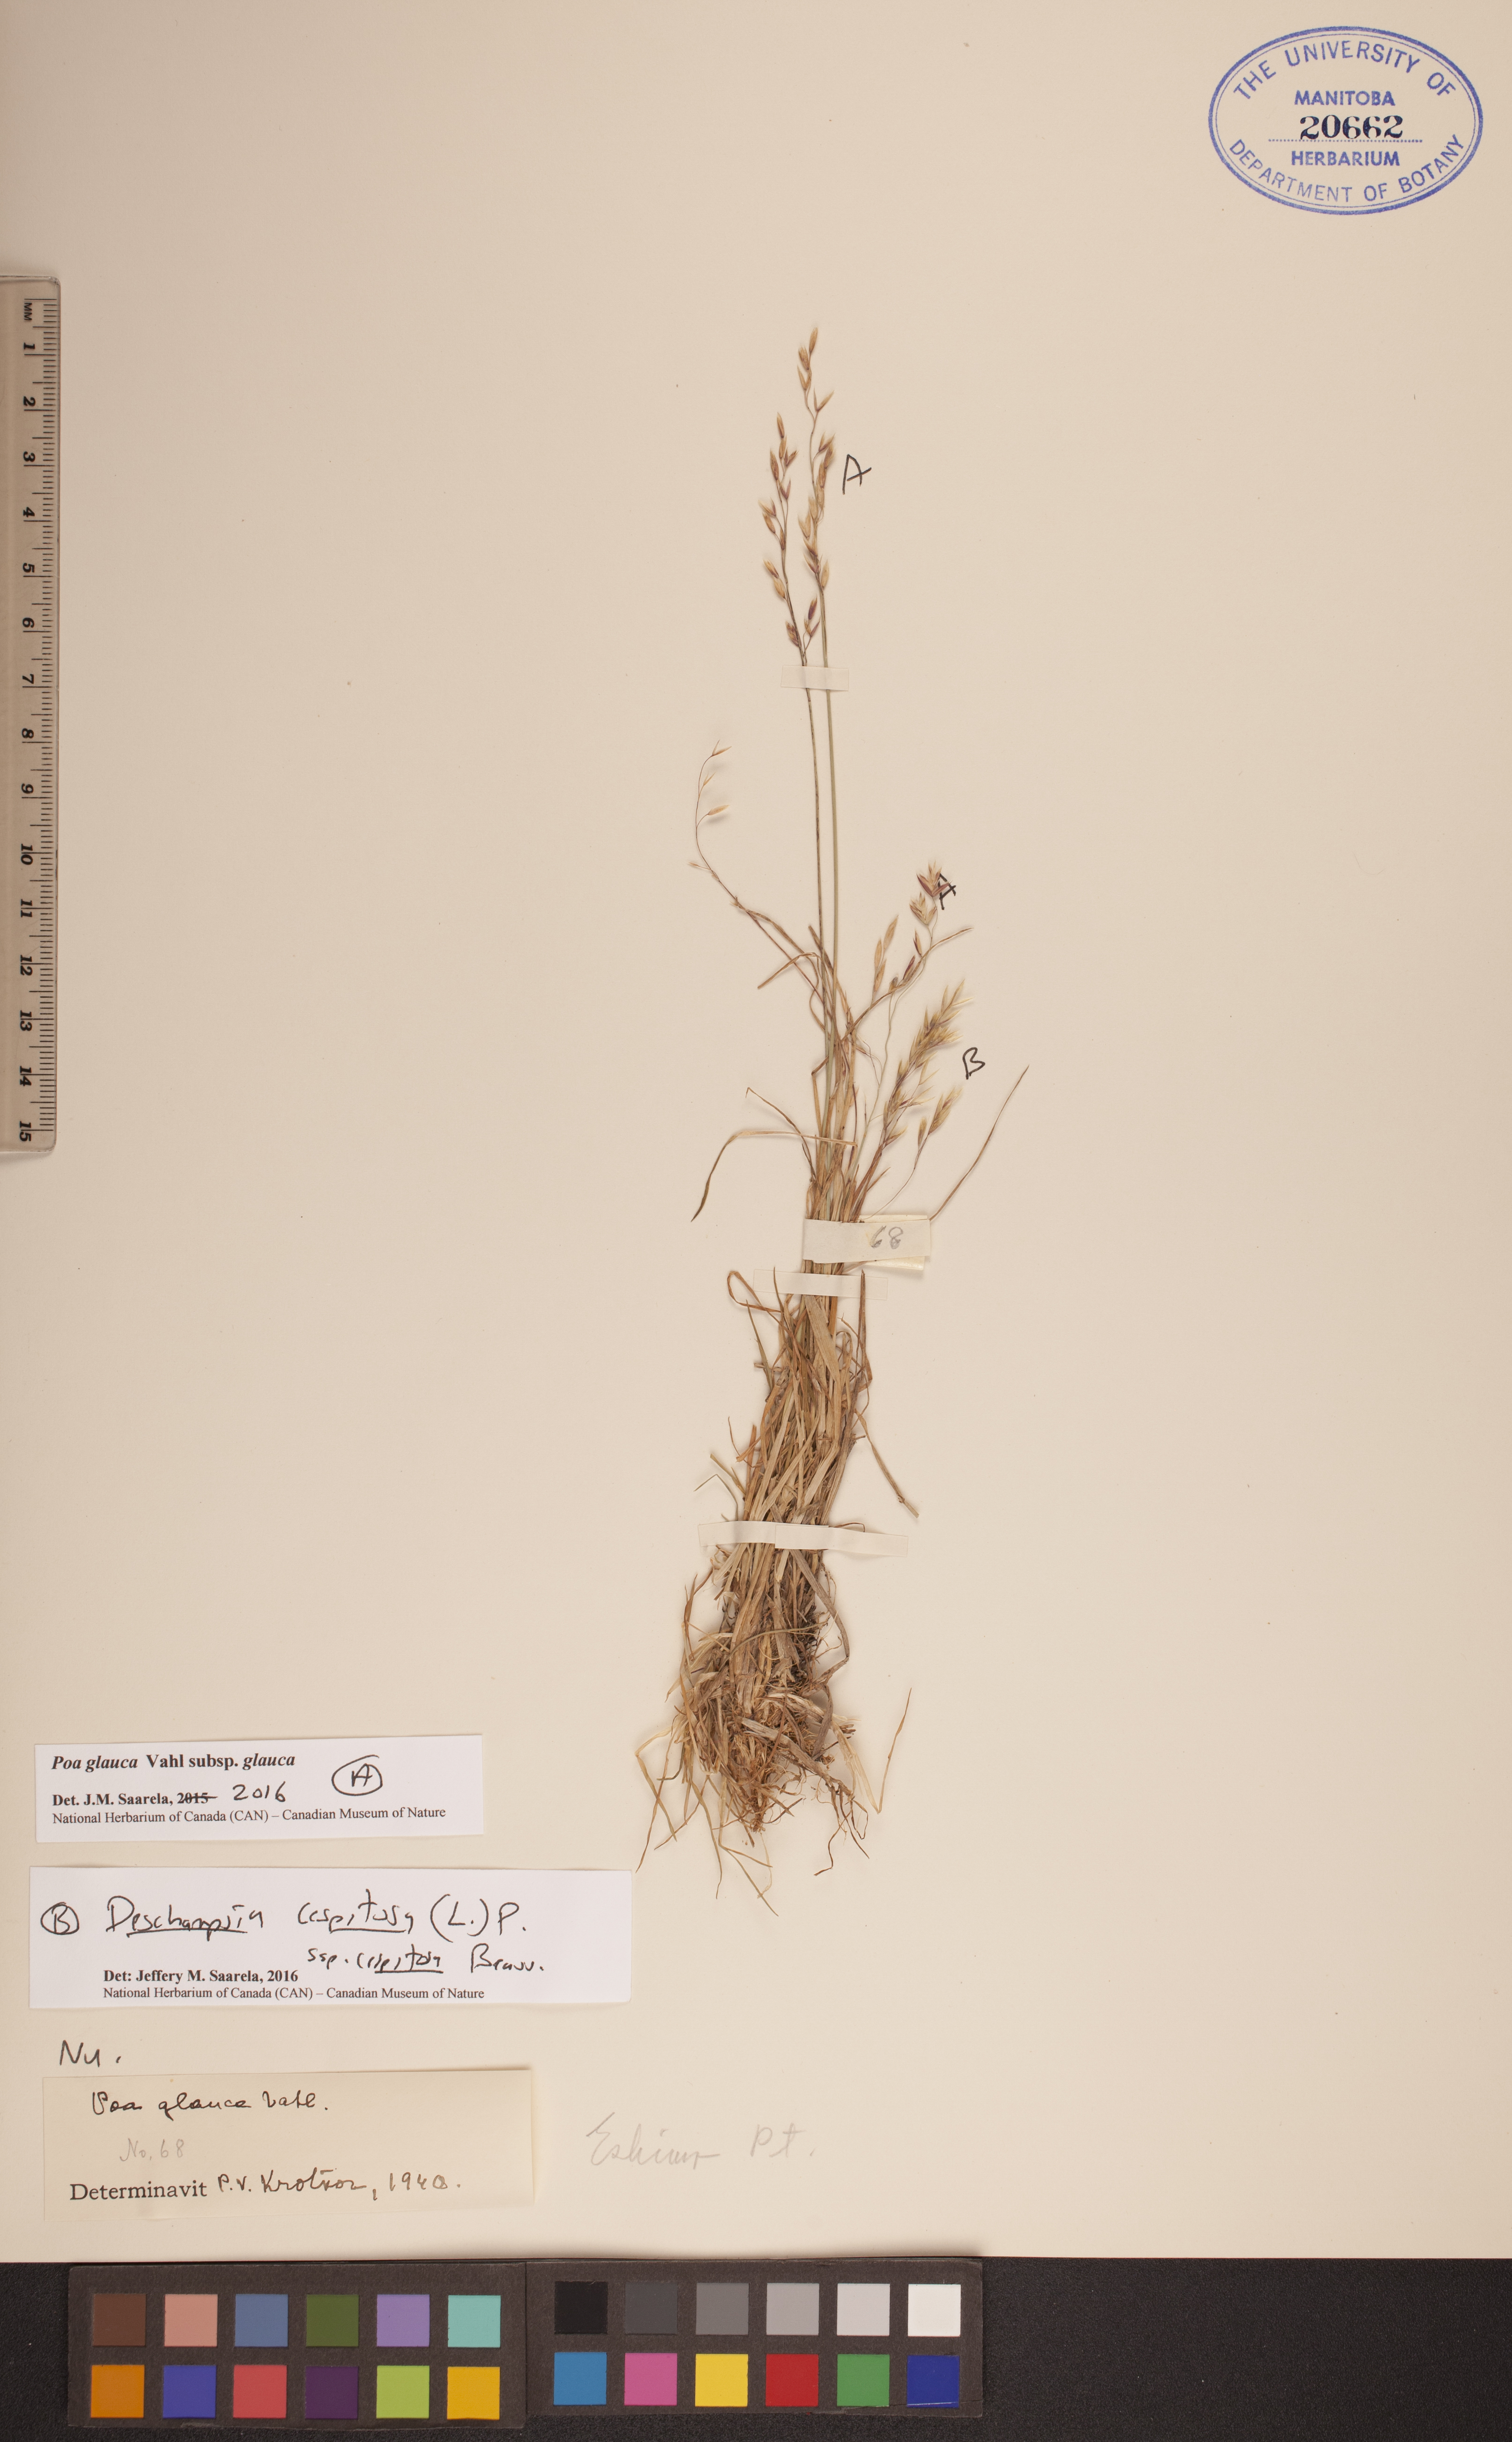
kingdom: Plantae
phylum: Tracheophyta
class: Liliopsida
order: Poales
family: Poaceae
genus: Deschampsia
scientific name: Deschampsia cespitosa
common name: Tufted hair-grass
